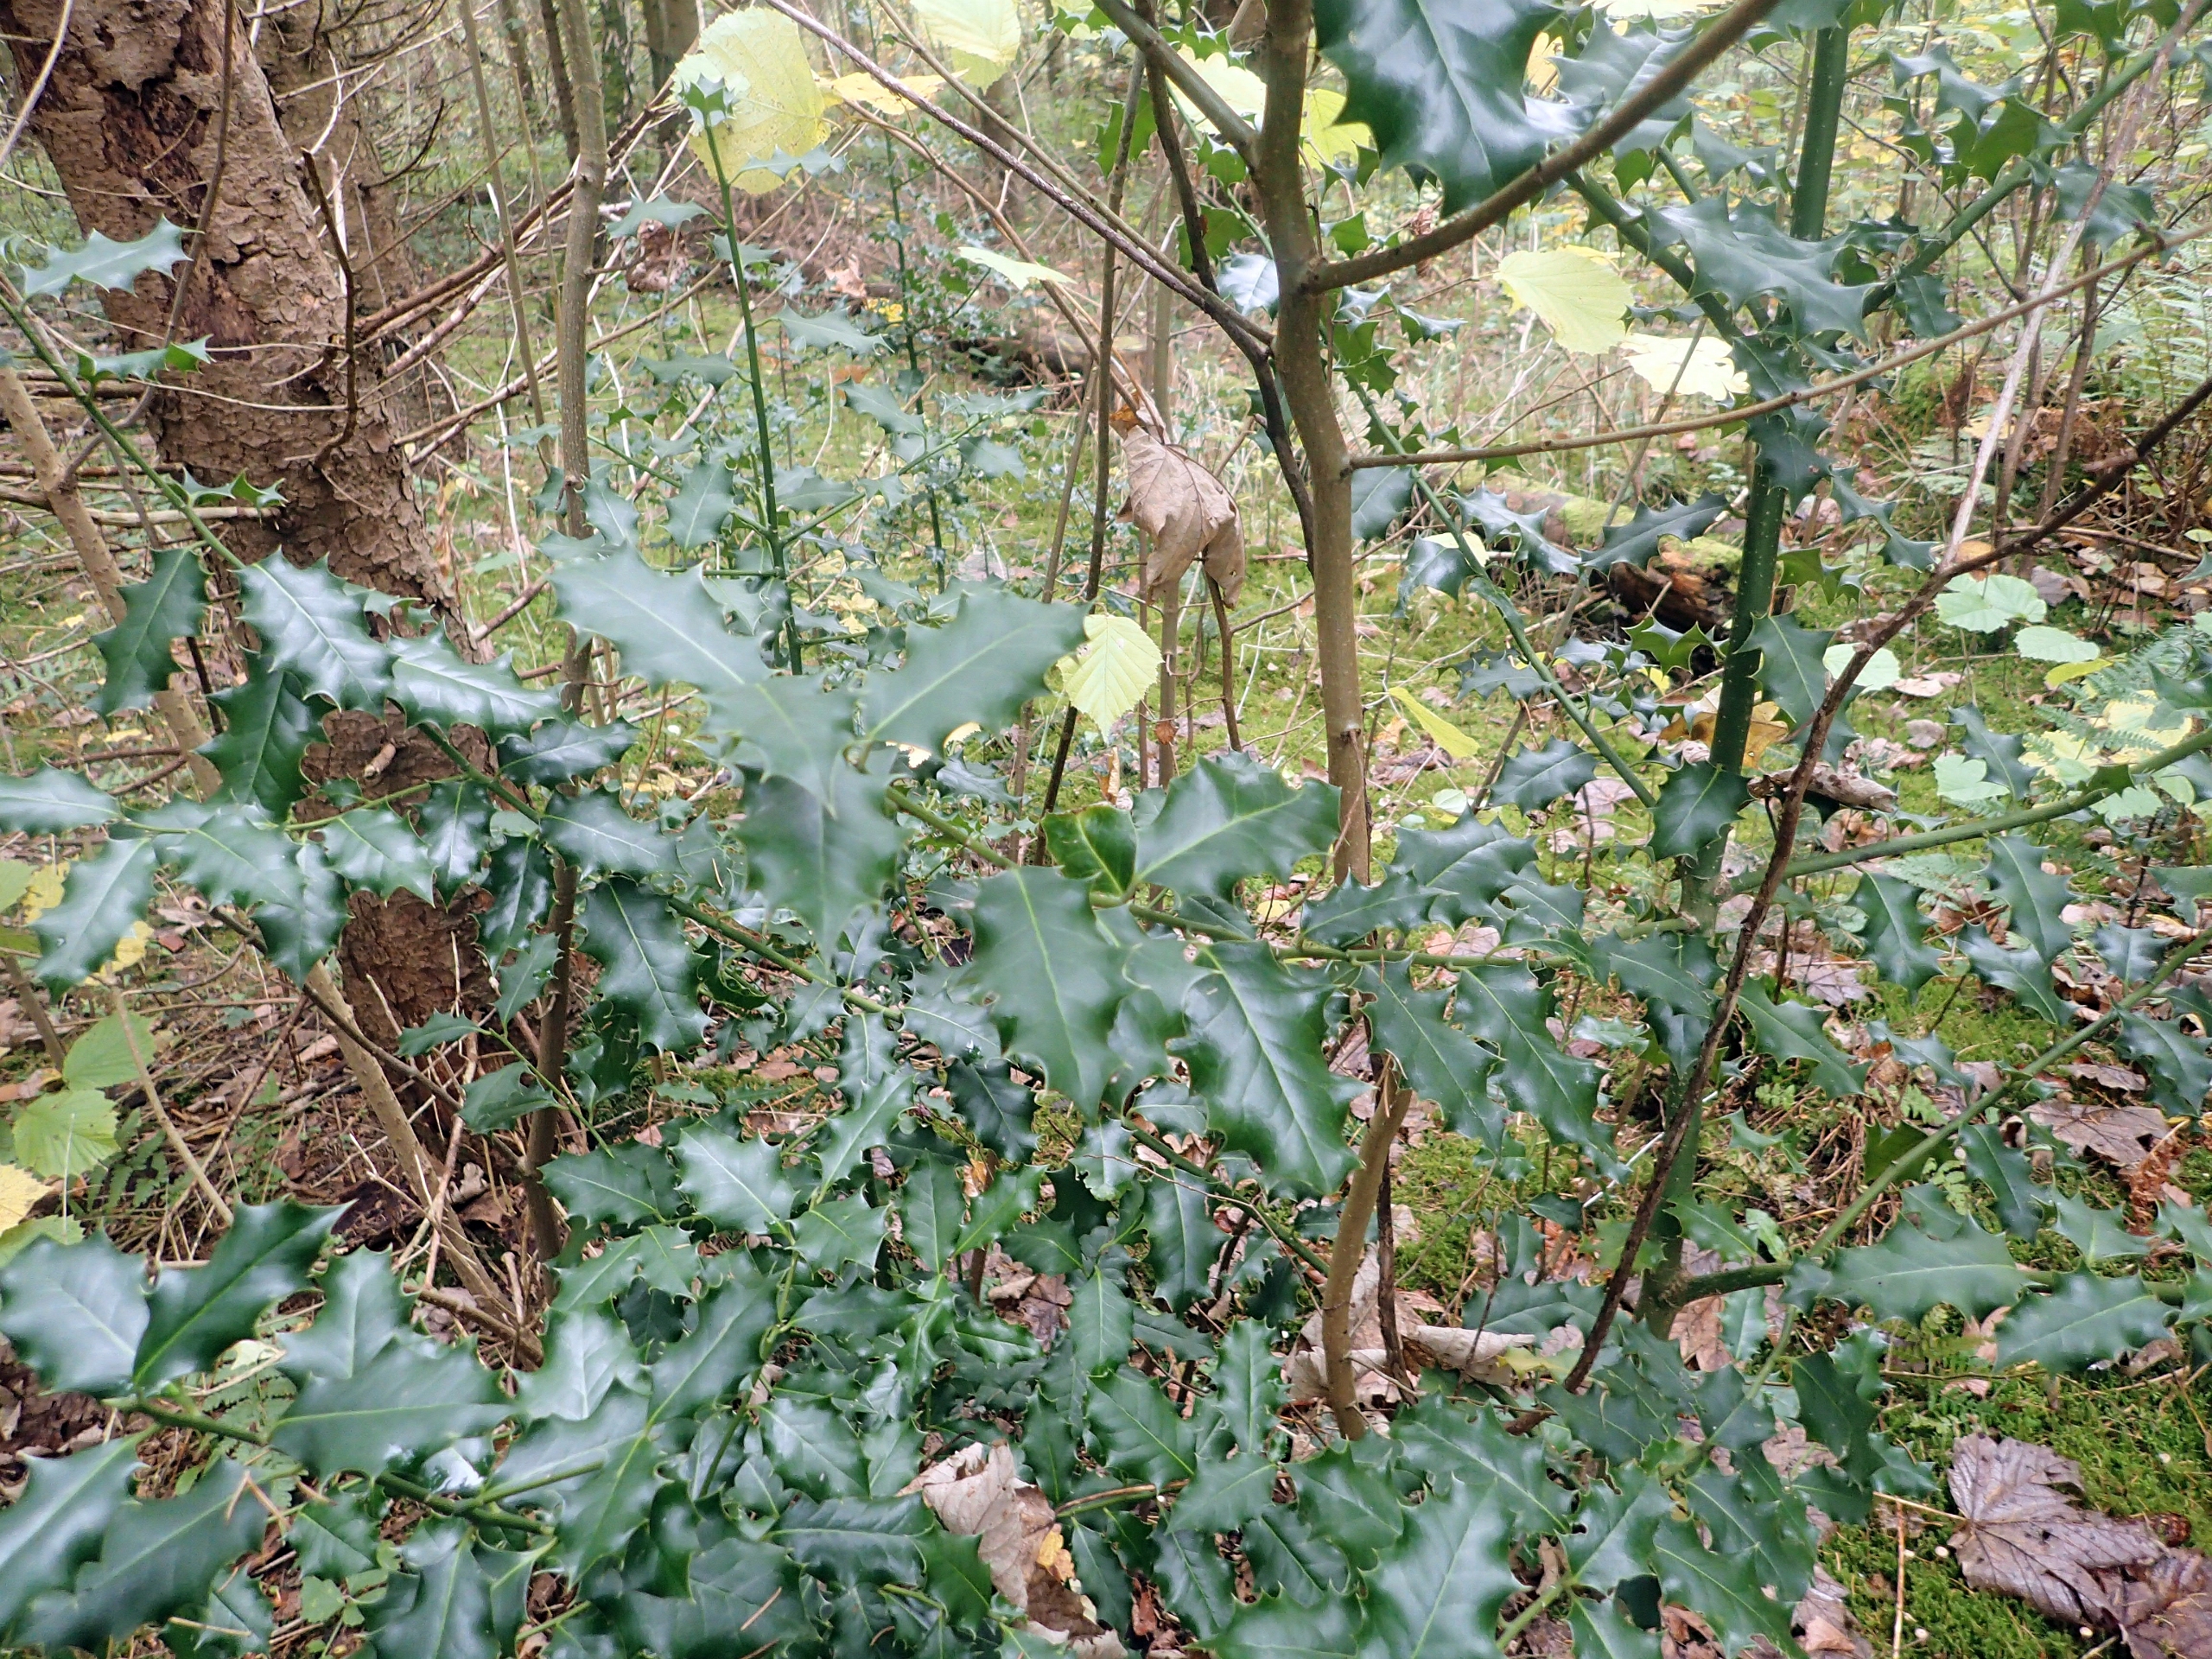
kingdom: Plantae
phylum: Tracheophyta
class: Magnoliopsida
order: Aquifoliales
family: Aquifoliaceae
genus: Ilex
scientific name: Ilex aquifolium
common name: Kristtorn
